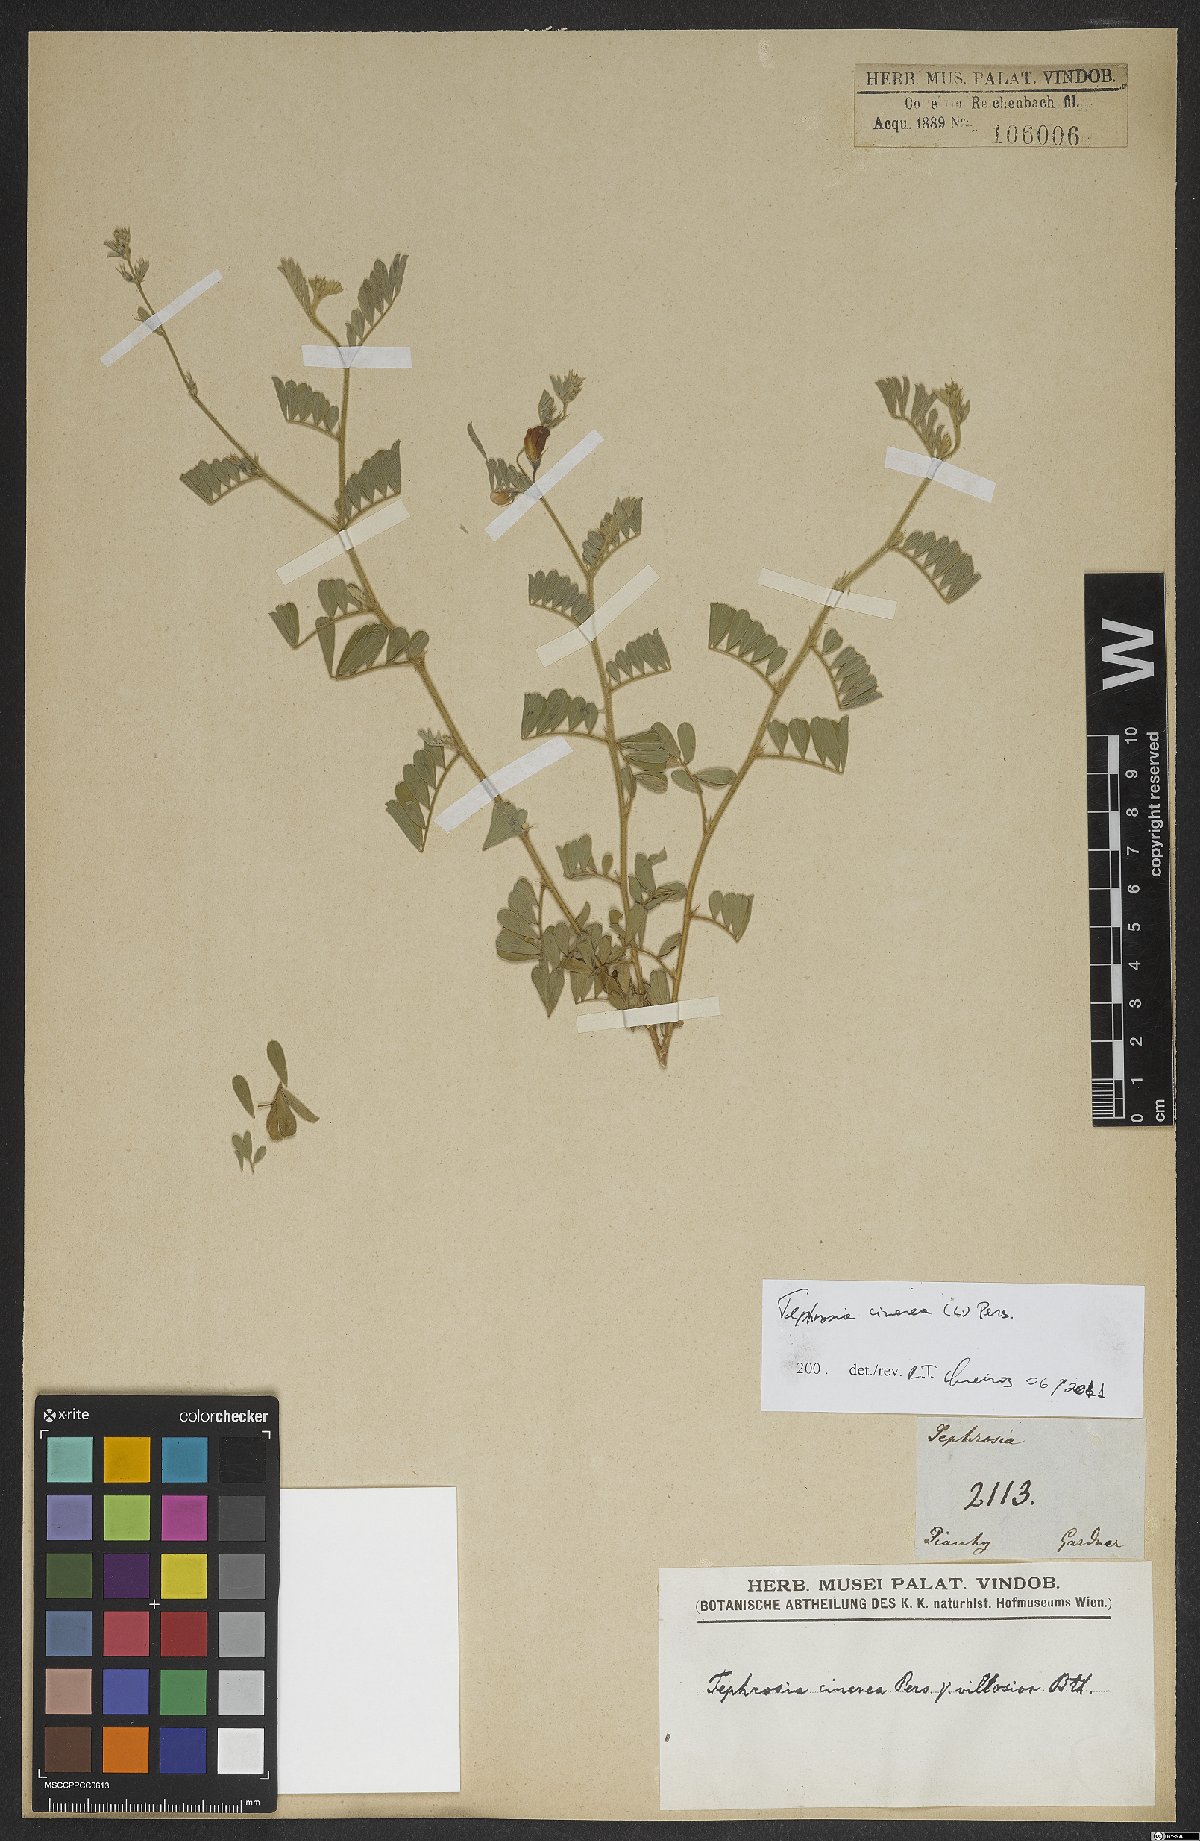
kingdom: Plantae
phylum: Tracheophyta
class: Magnoliopsida
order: Fabales
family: Fabaceae
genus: Tephrosia
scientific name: Tephrosia cinerea
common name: Ashen hoarypea
